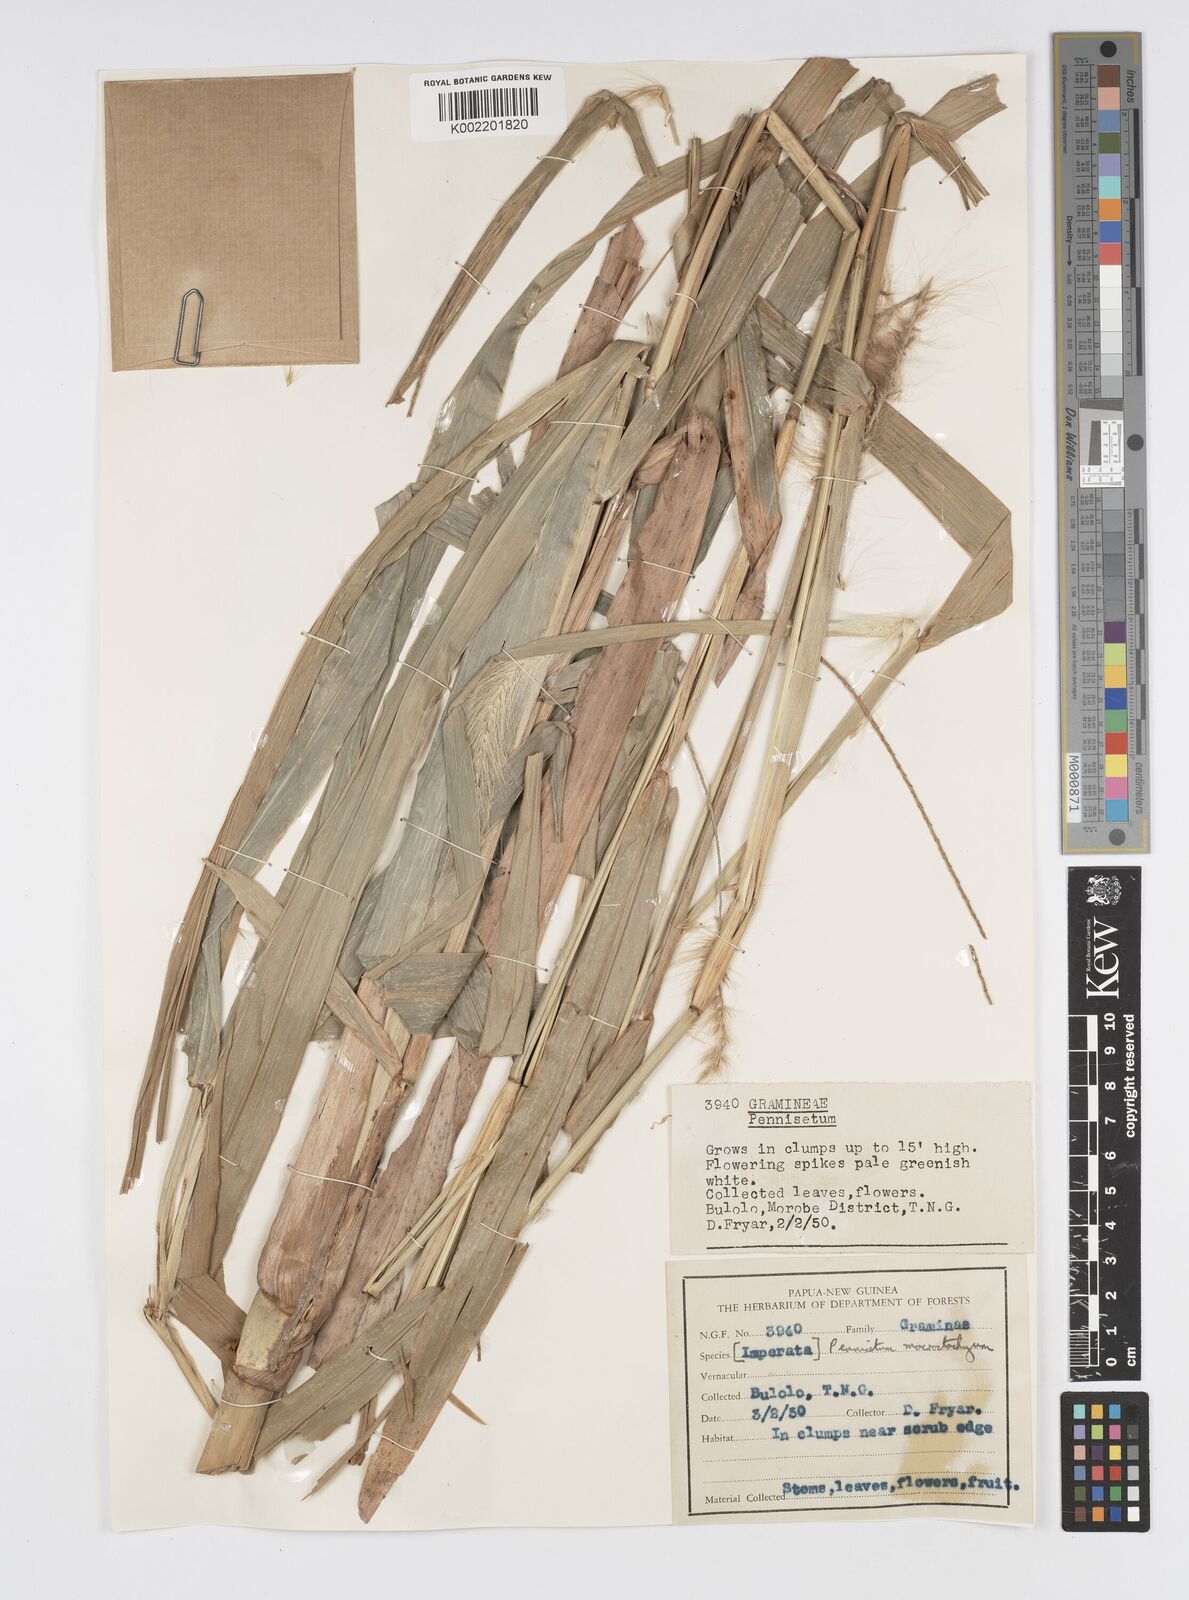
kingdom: Plantae
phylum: Tracheophyta
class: Liliopsida
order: Poales
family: Poaceae
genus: Cenchrus
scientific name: Cenchrus purpureus
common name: Elephant grass
